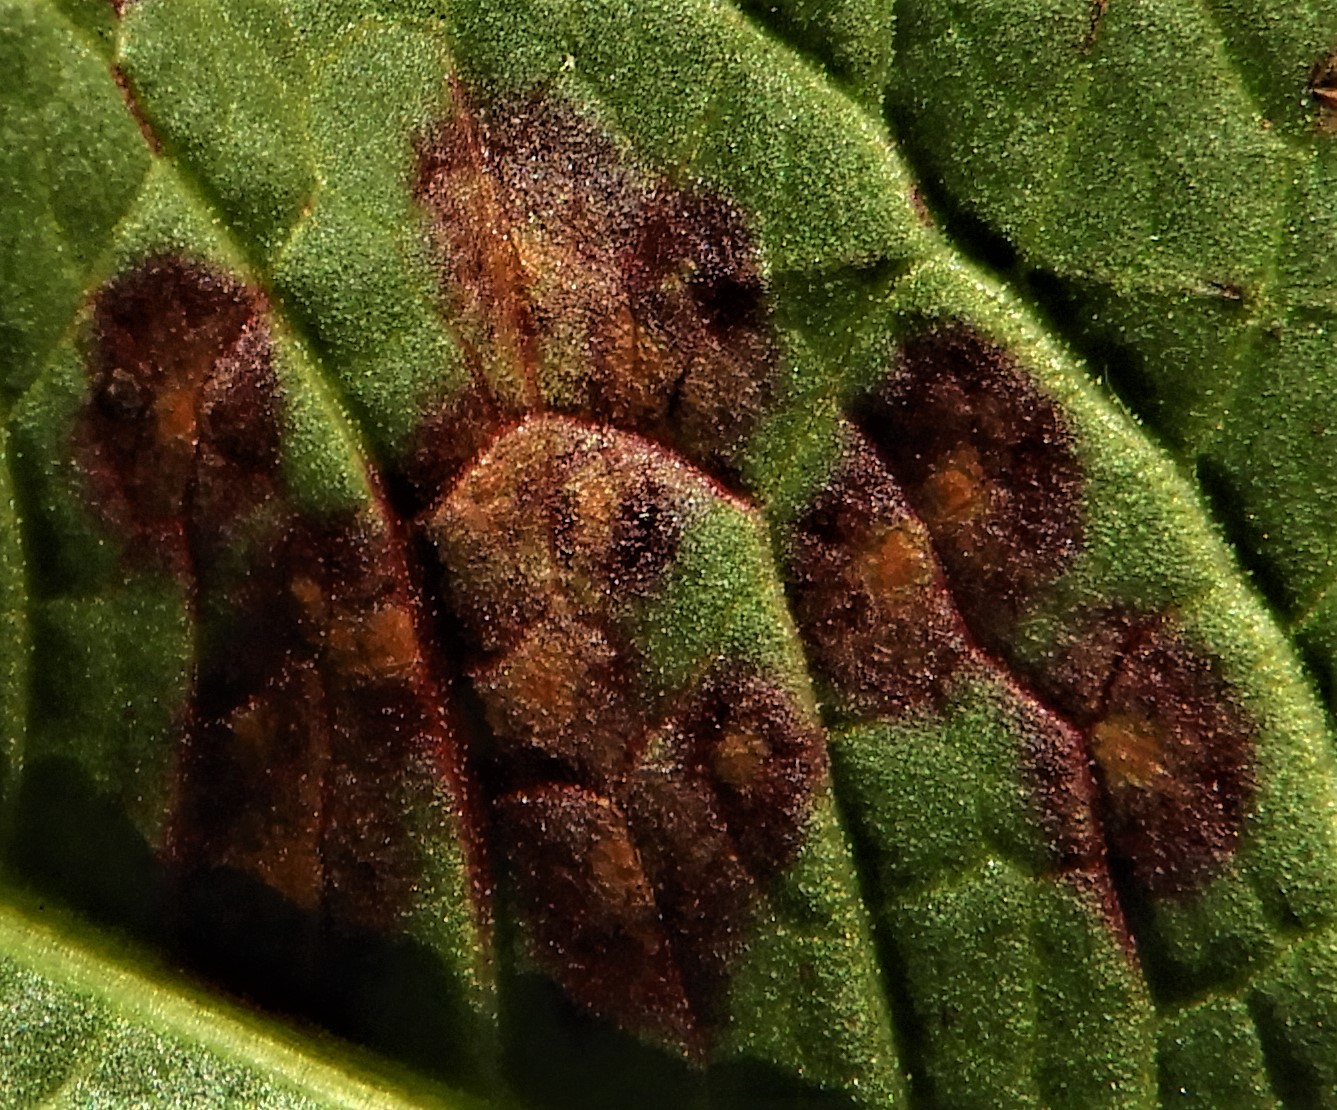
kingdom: Fungi
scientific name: Fungi
